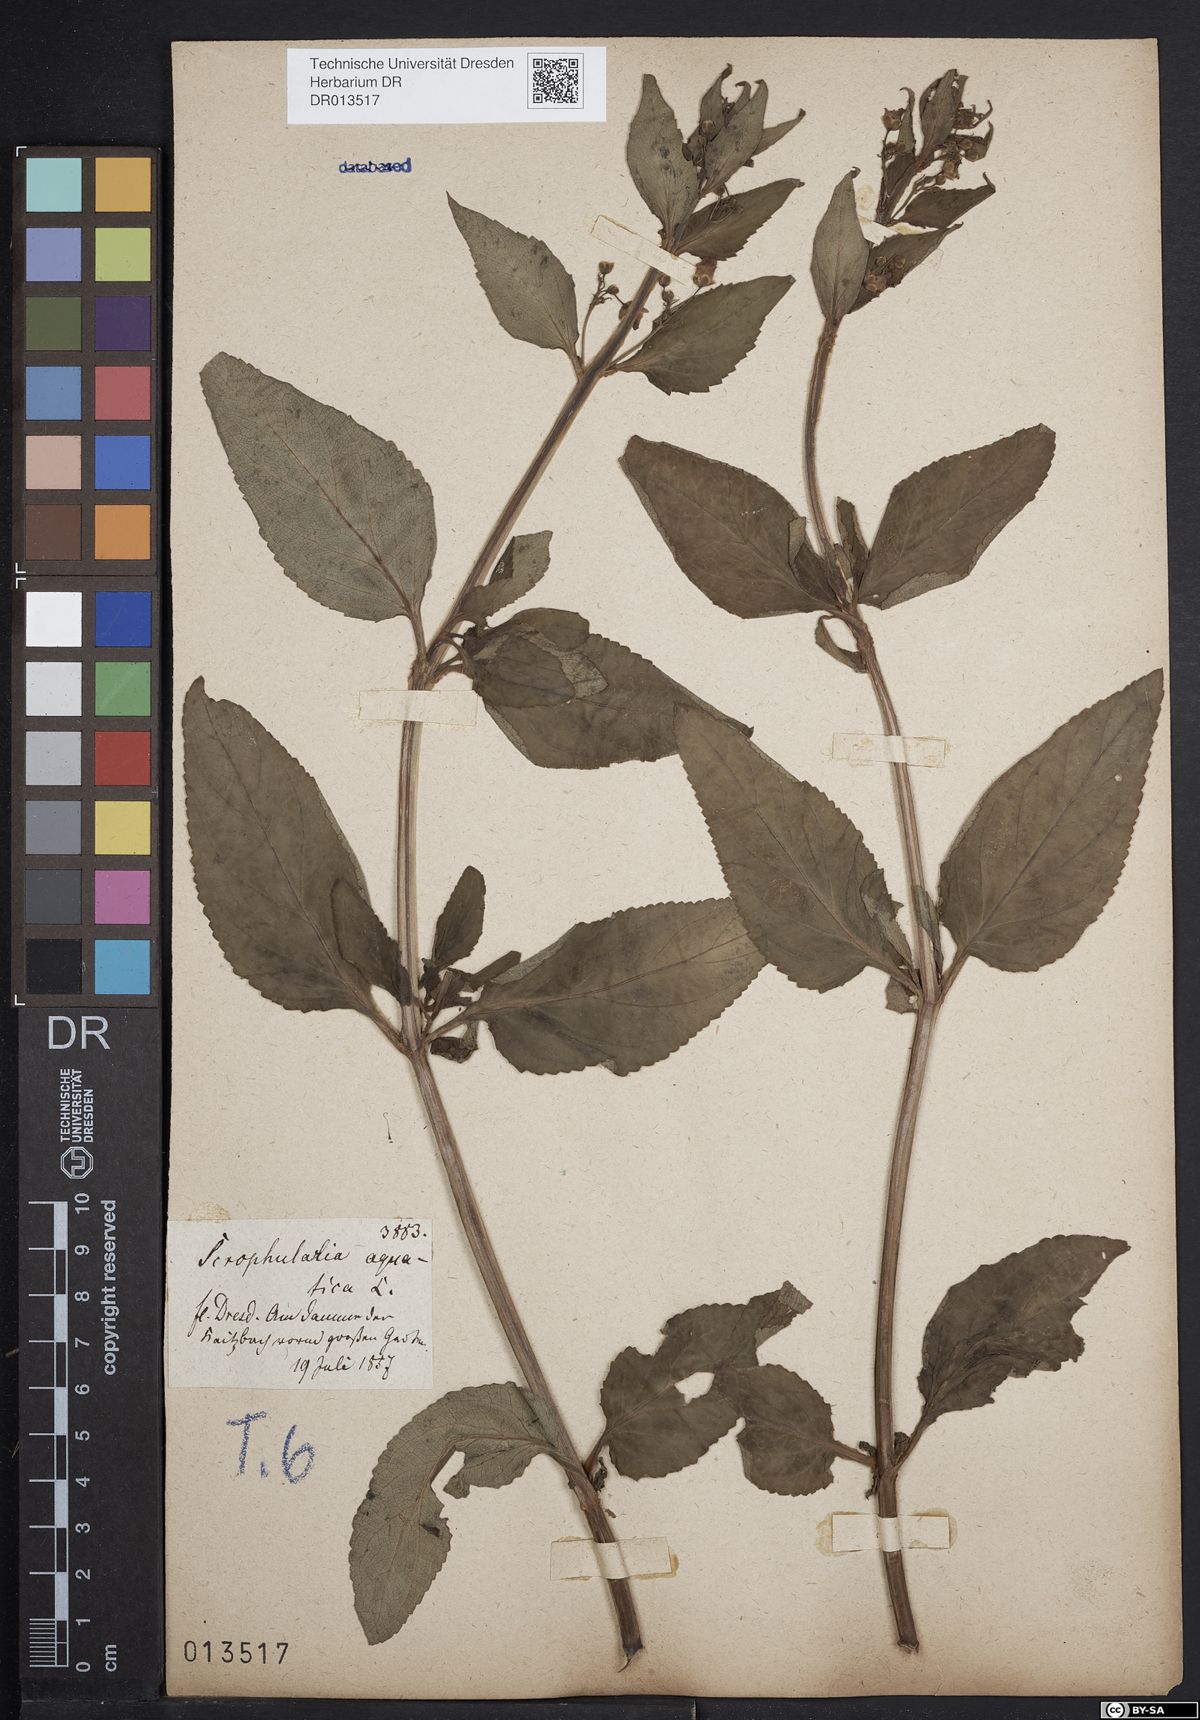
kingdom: Plantae
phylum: Tracheophyta
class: Magnoliopsida
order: Lamiales
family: Scrophulariaceae
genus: Scrophularia
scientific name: Scrophularia umbrosa
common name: Green figwort
